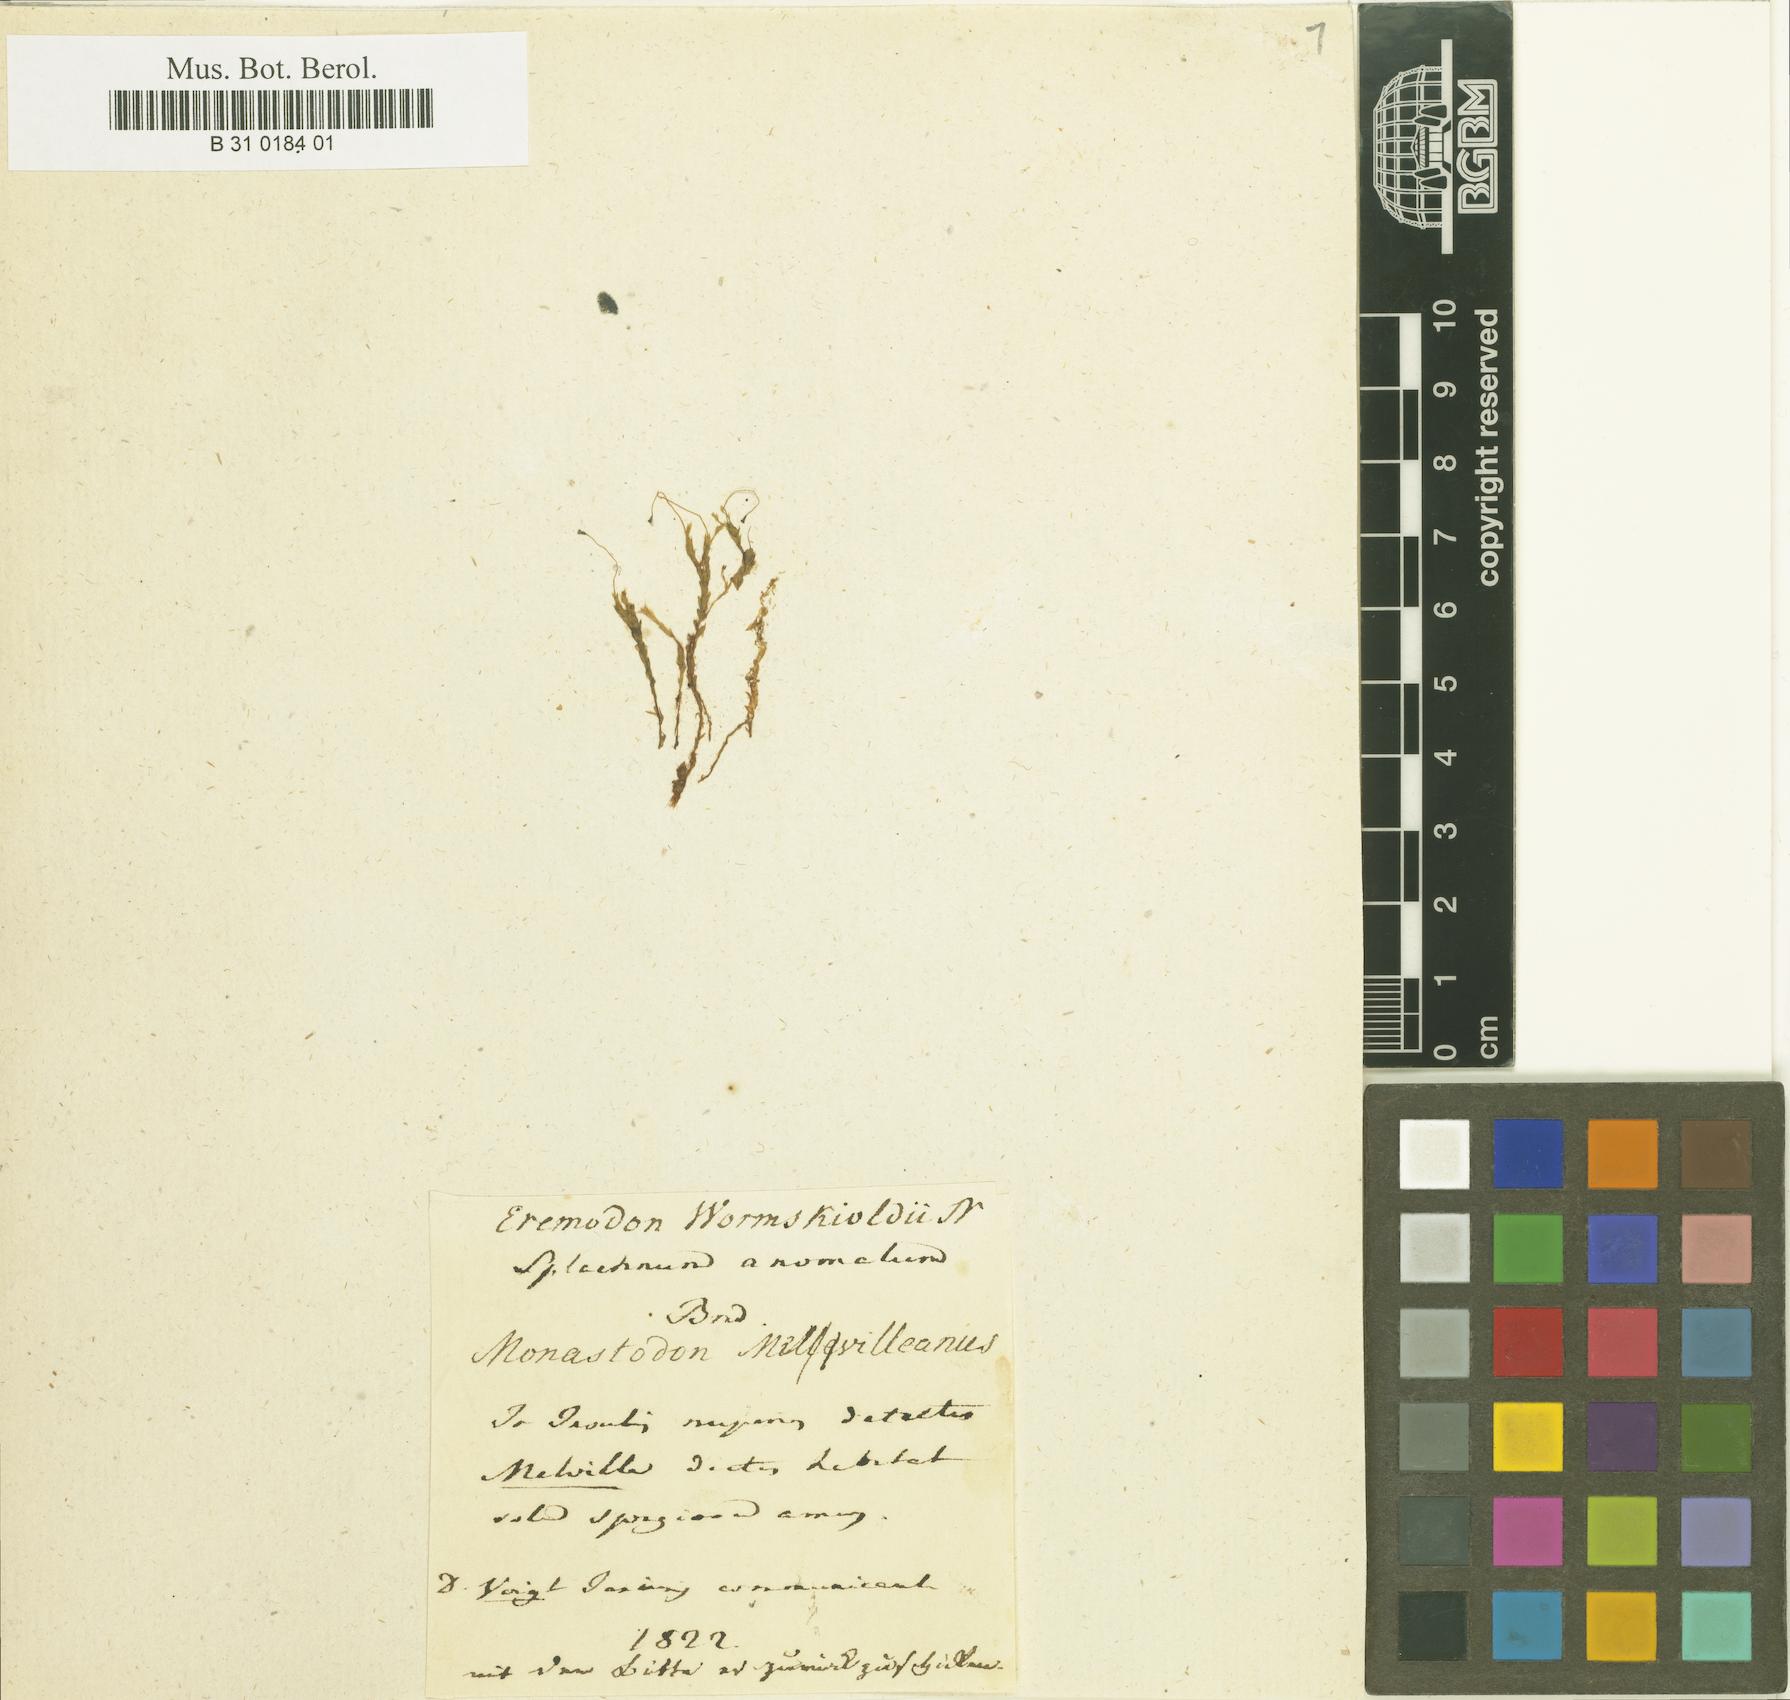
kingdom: Plantae
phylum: Bryophyta
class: Bryopsida
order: Splachnales
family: Splachnaceae
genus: Aplodon
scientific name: Aplodon wormskioldii
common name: Carrion moss
